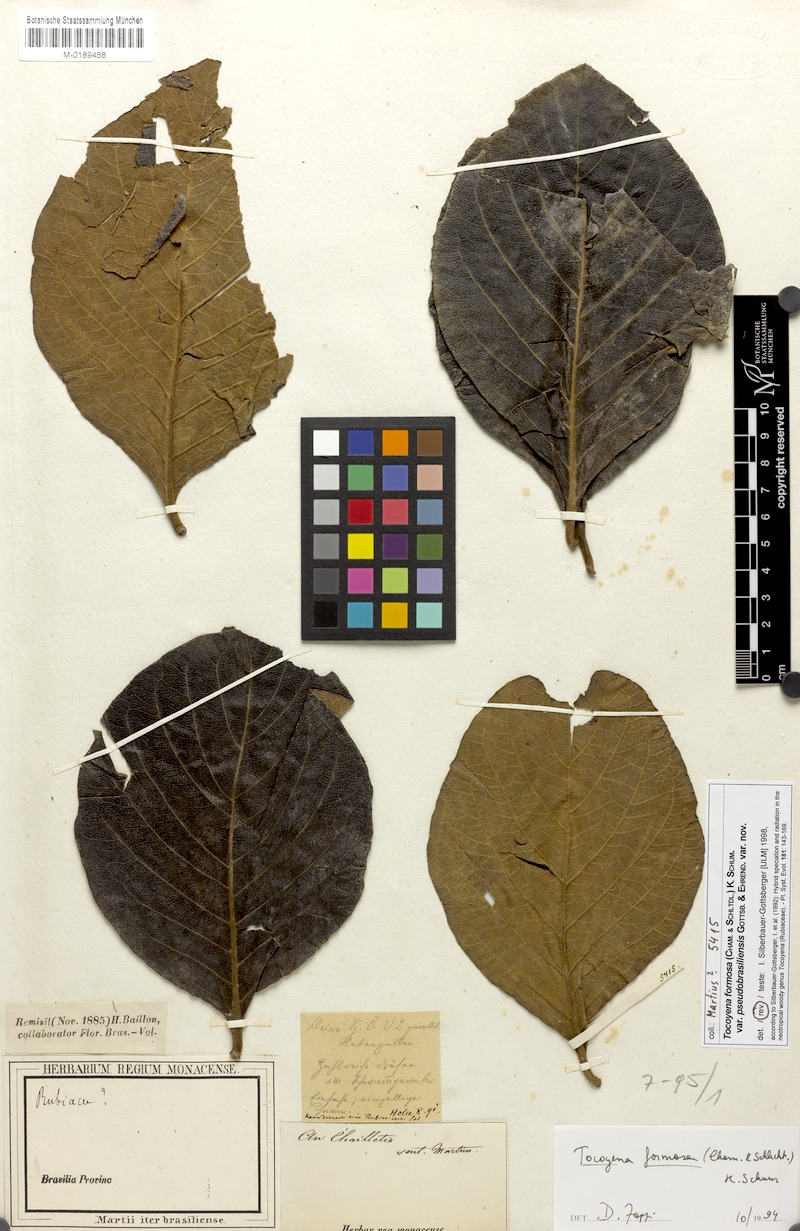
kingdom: Plantae
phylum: Tracheophyta
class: Magnoliopsida
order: Gentianales
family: Rubiaceae
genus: Tocoyena
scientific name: Tocoyena formosa
